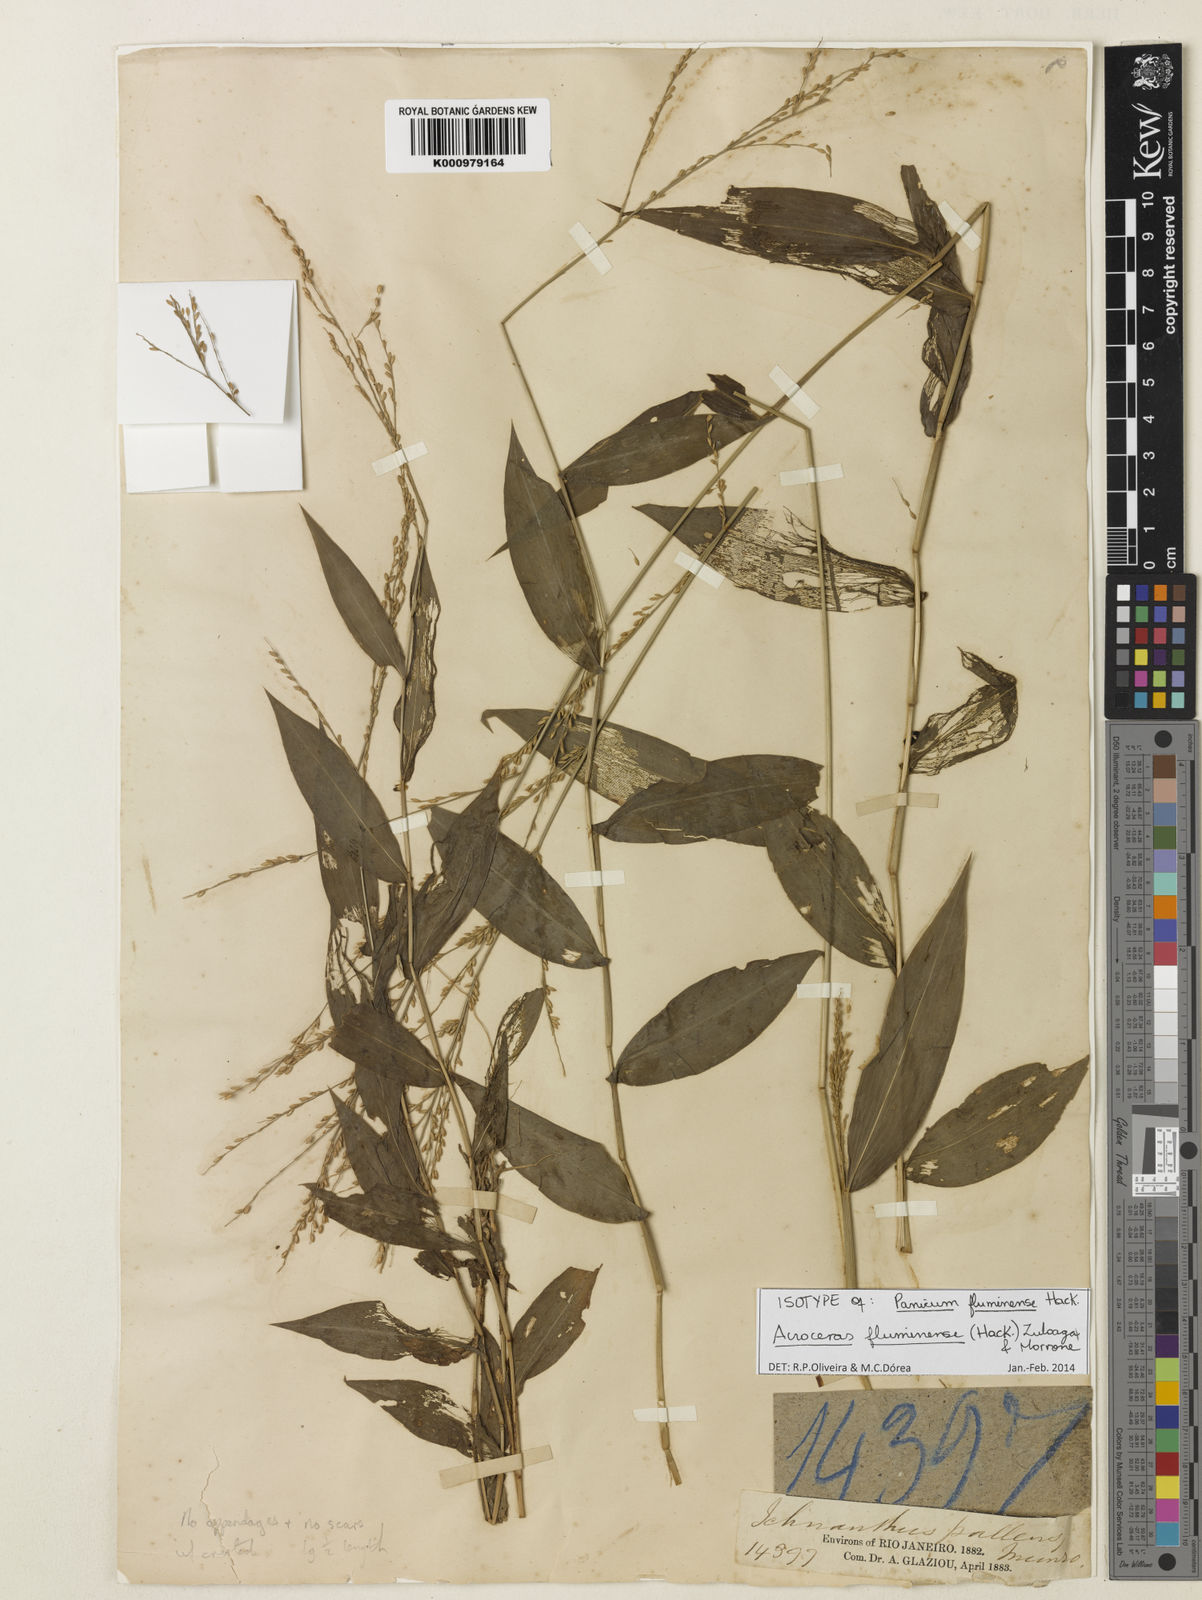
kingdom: Plantae
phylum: Tracheophyta
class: Liliopsida
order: Poales
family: Poaceae
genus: Acroceras
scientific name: Acroceras fluminense
